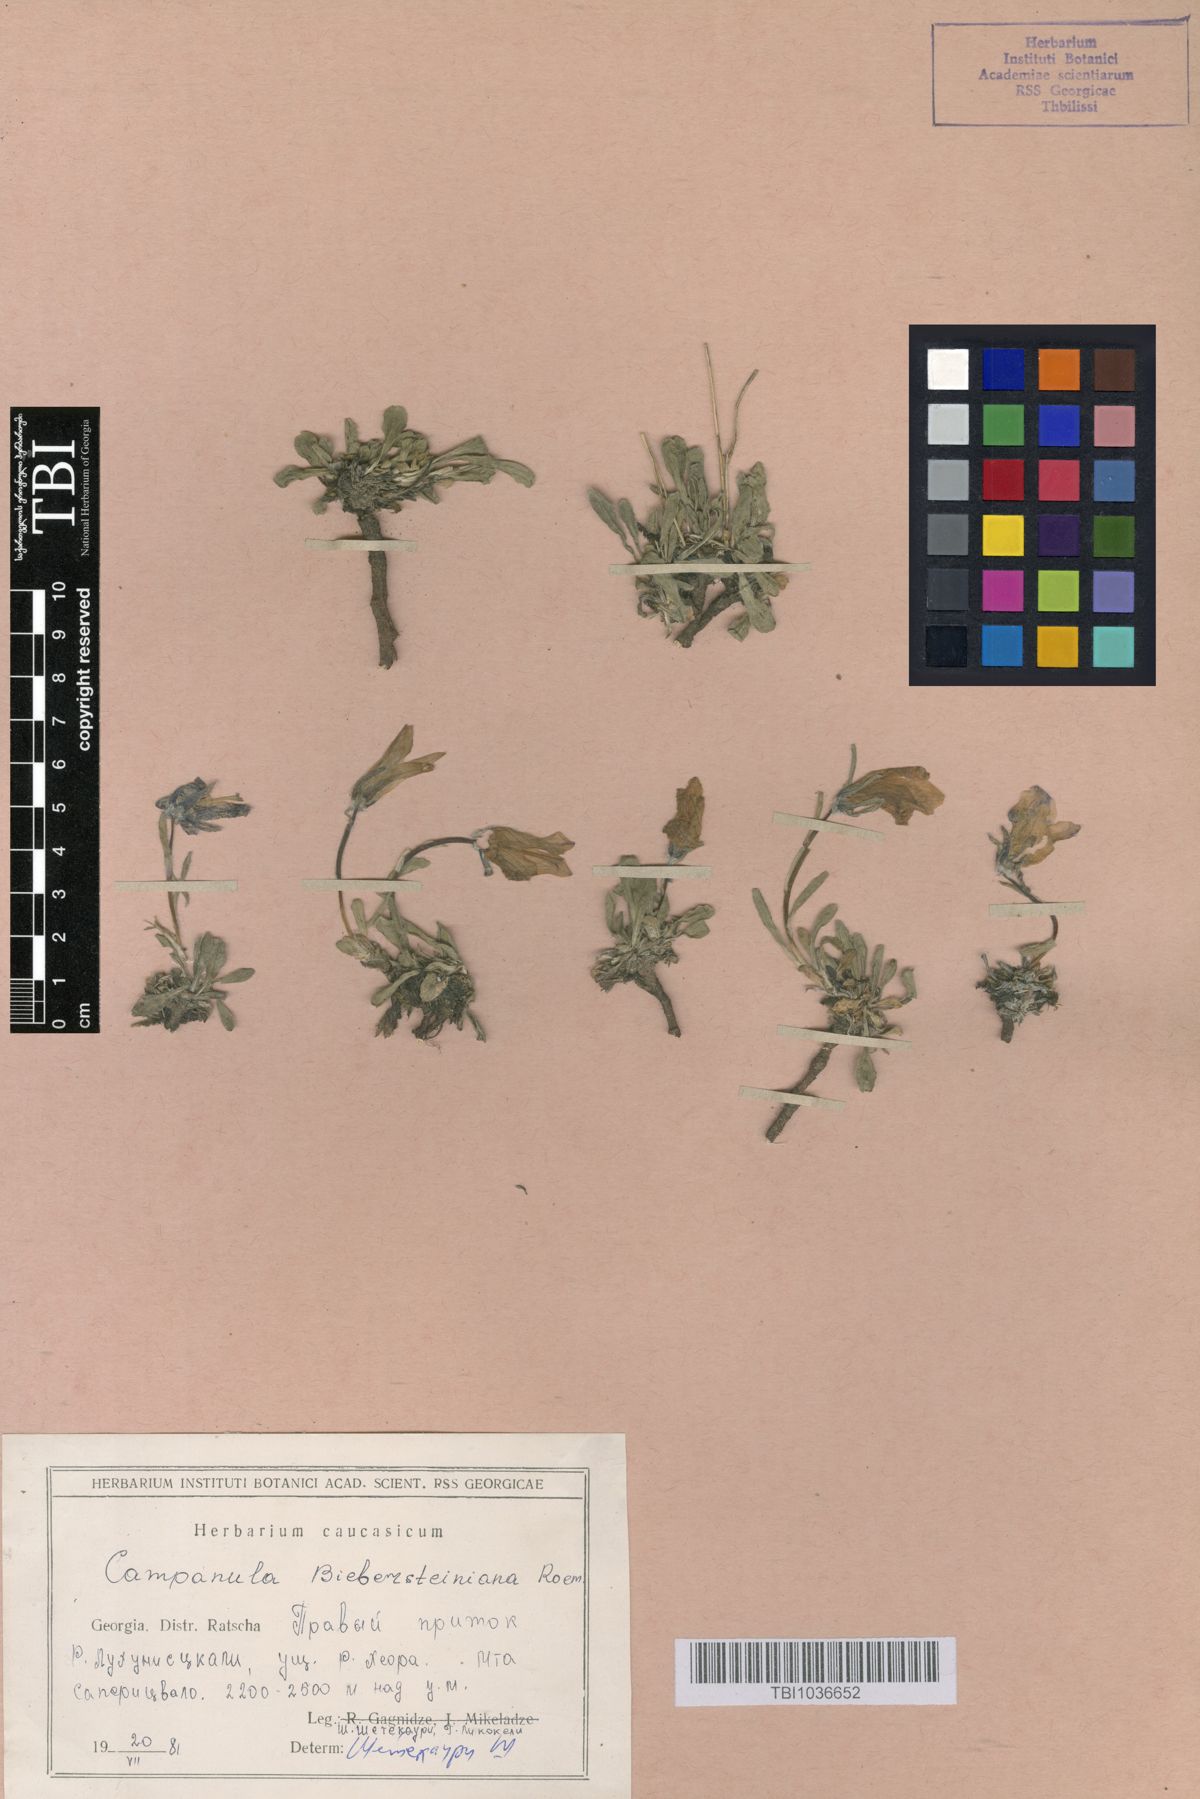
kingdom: Plantae
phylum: Tracheophyta
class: Magnoliopsida
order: Asterales
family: Campanulaceae
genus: Campanula
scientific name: Campanula tridentata
